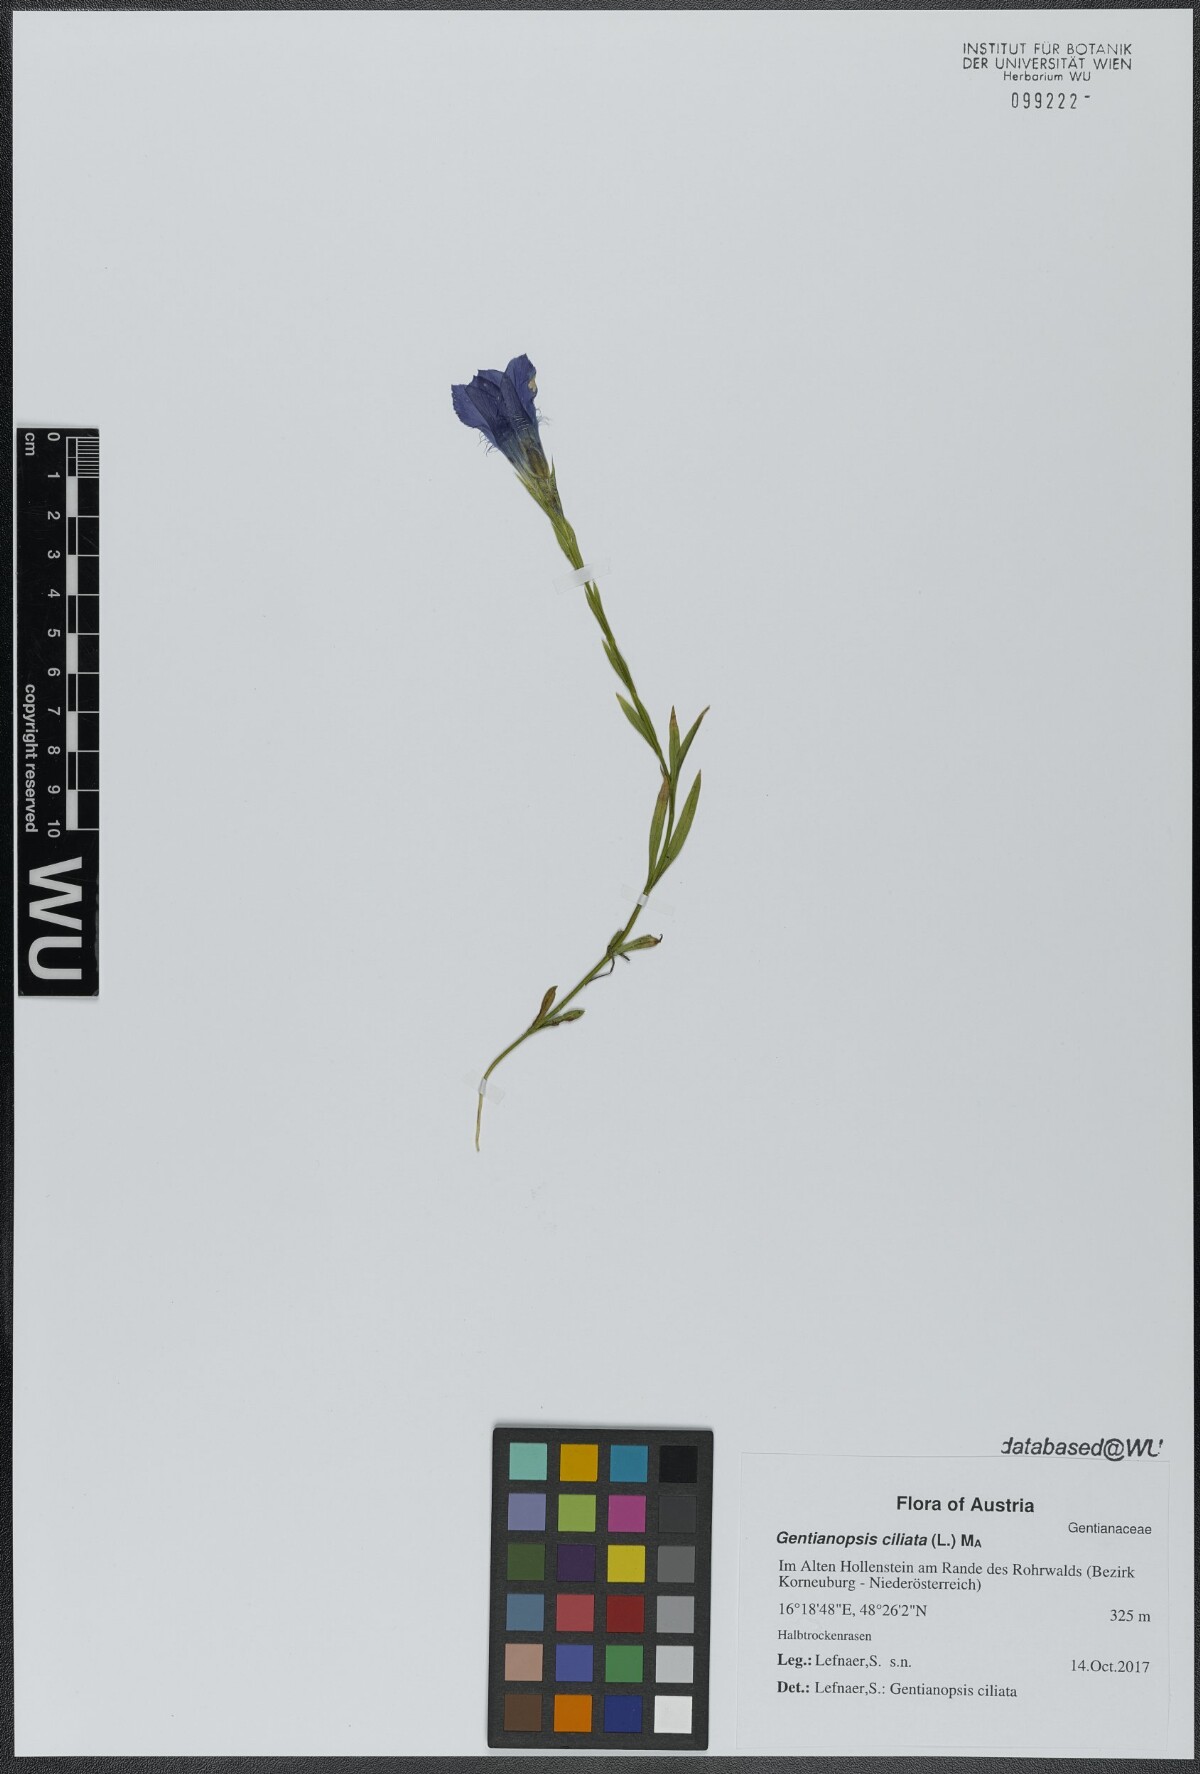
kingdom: Plantae
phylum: Tracheophyta
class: Magnoliopsida
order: Gentianales
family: Gentianaceae
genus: Gentianopsis
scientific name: Gentianopsis ciliata
